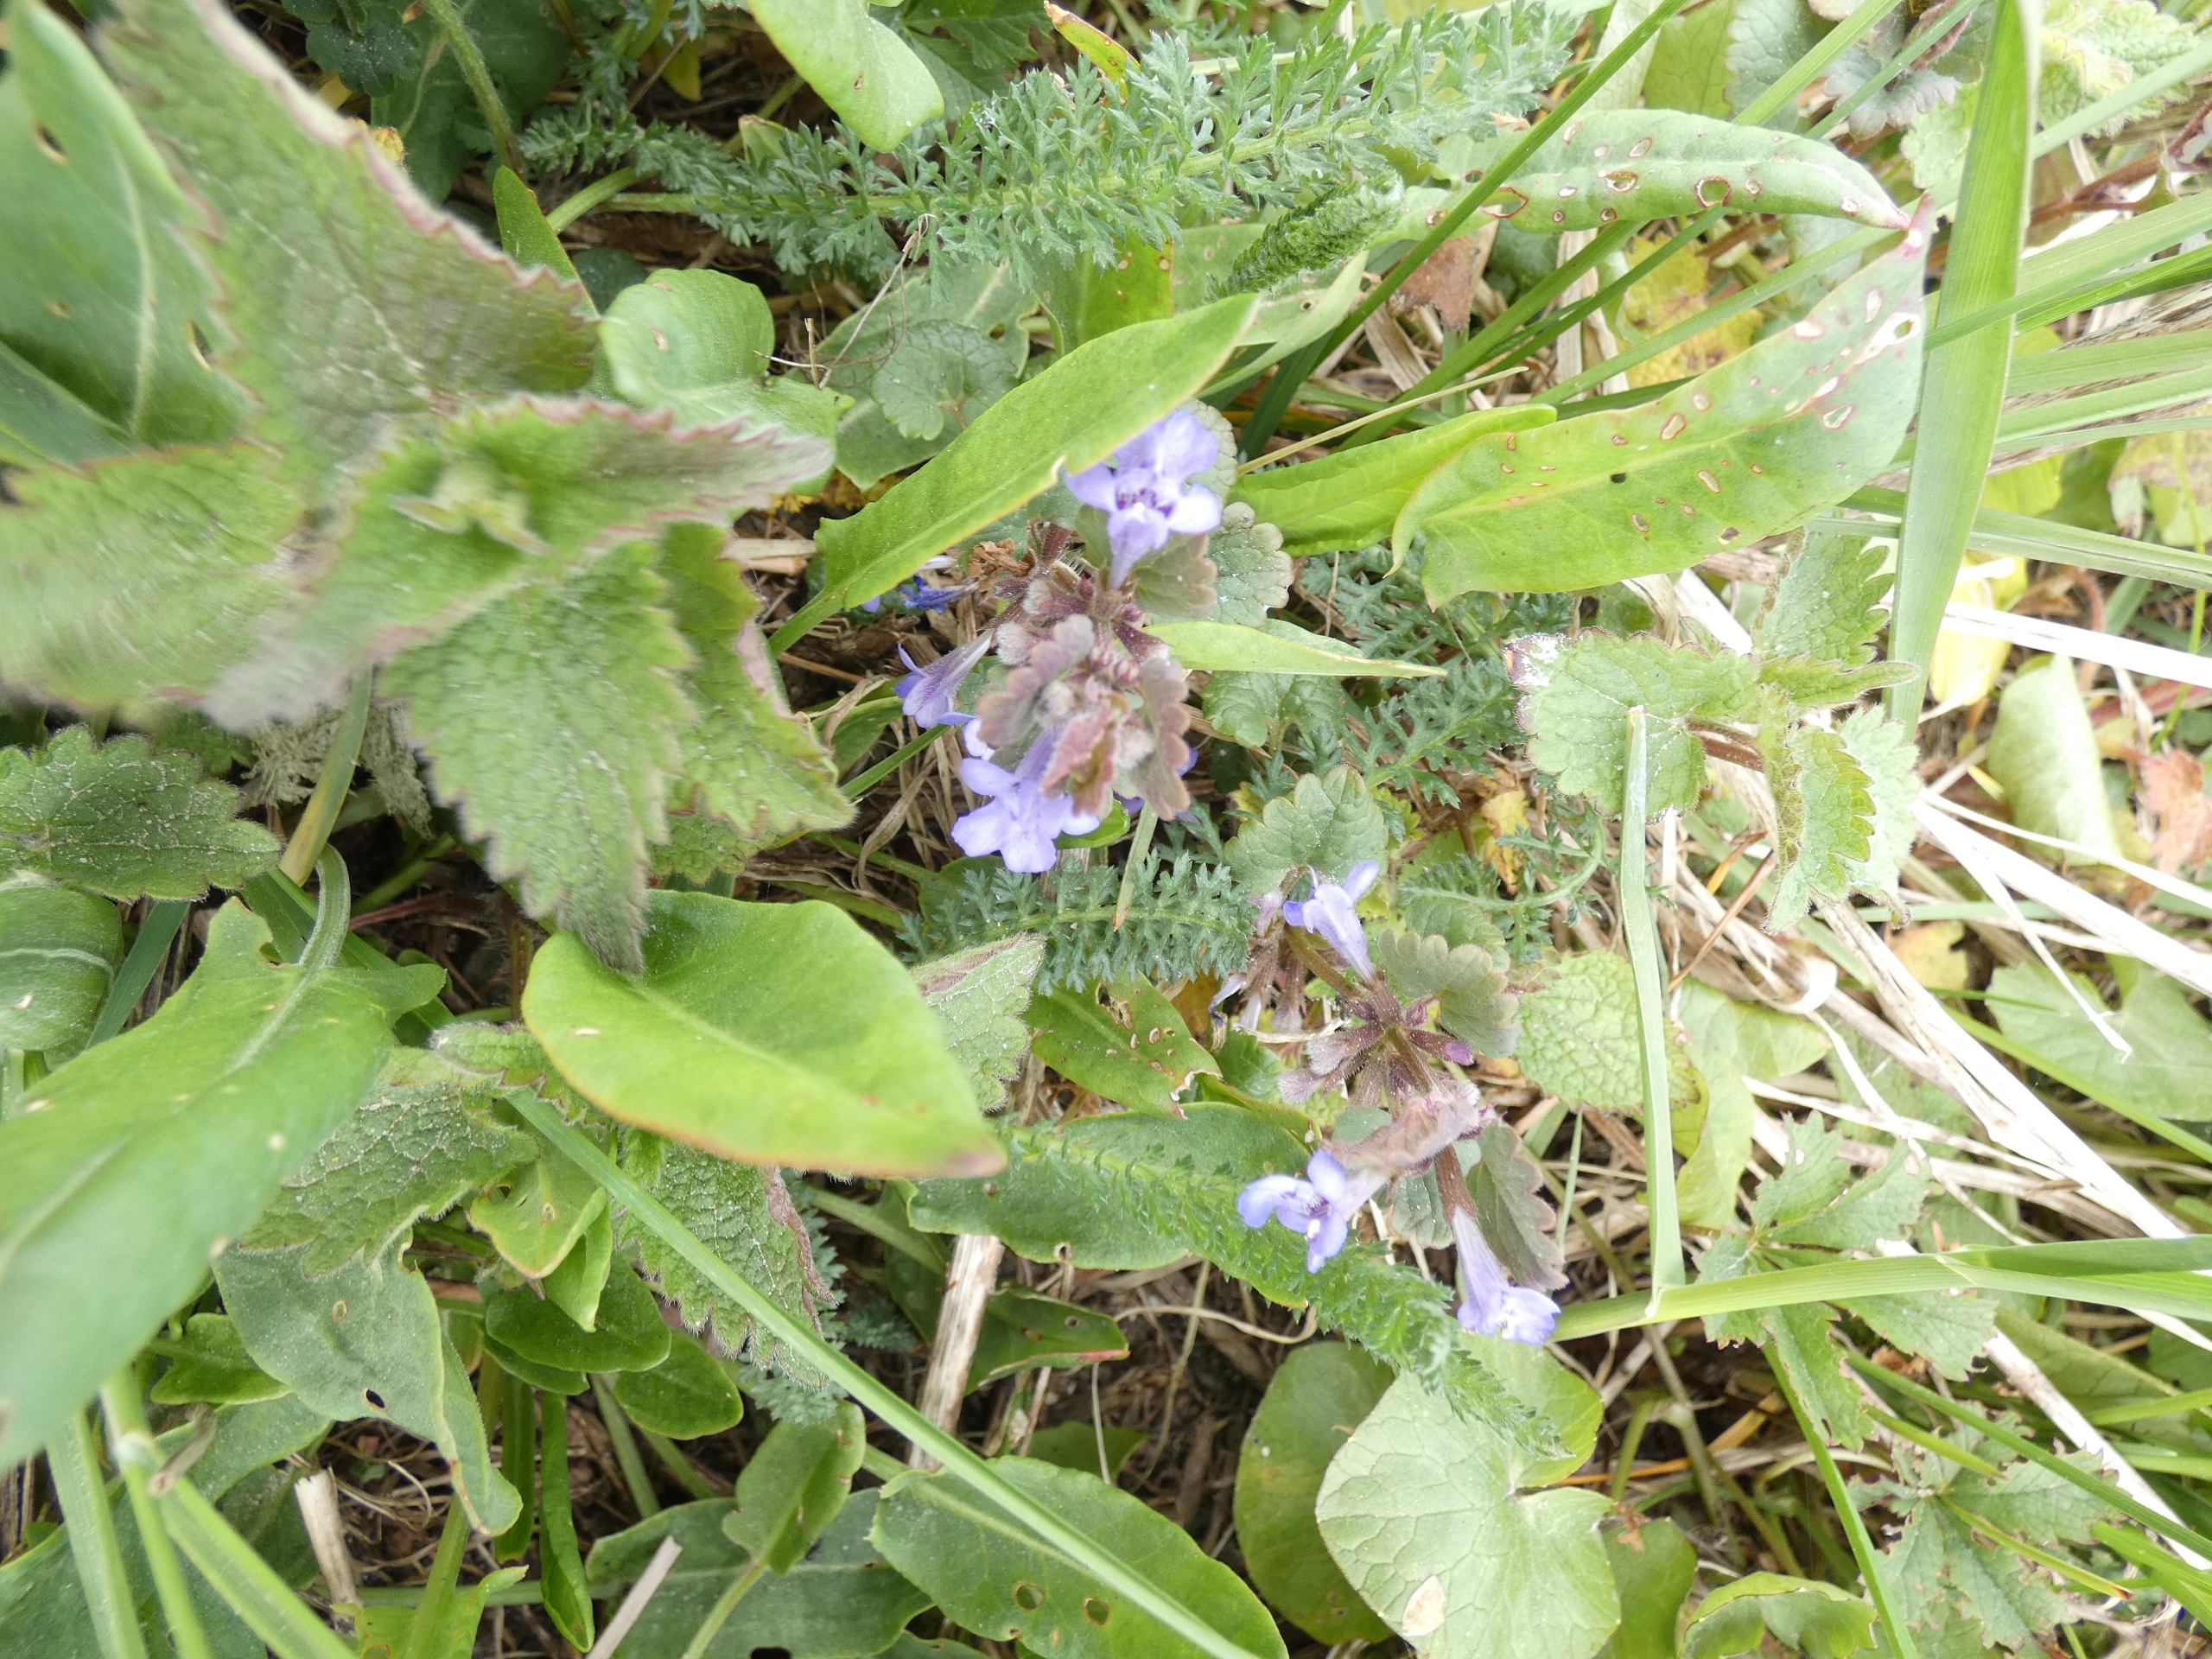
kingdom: Plantae
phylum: Tracheophyta
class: Magnoliopsida
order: Lamiales
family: Lamiaceae
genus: Glechoma
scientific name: Glechoma hederacea
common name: Korsknap
